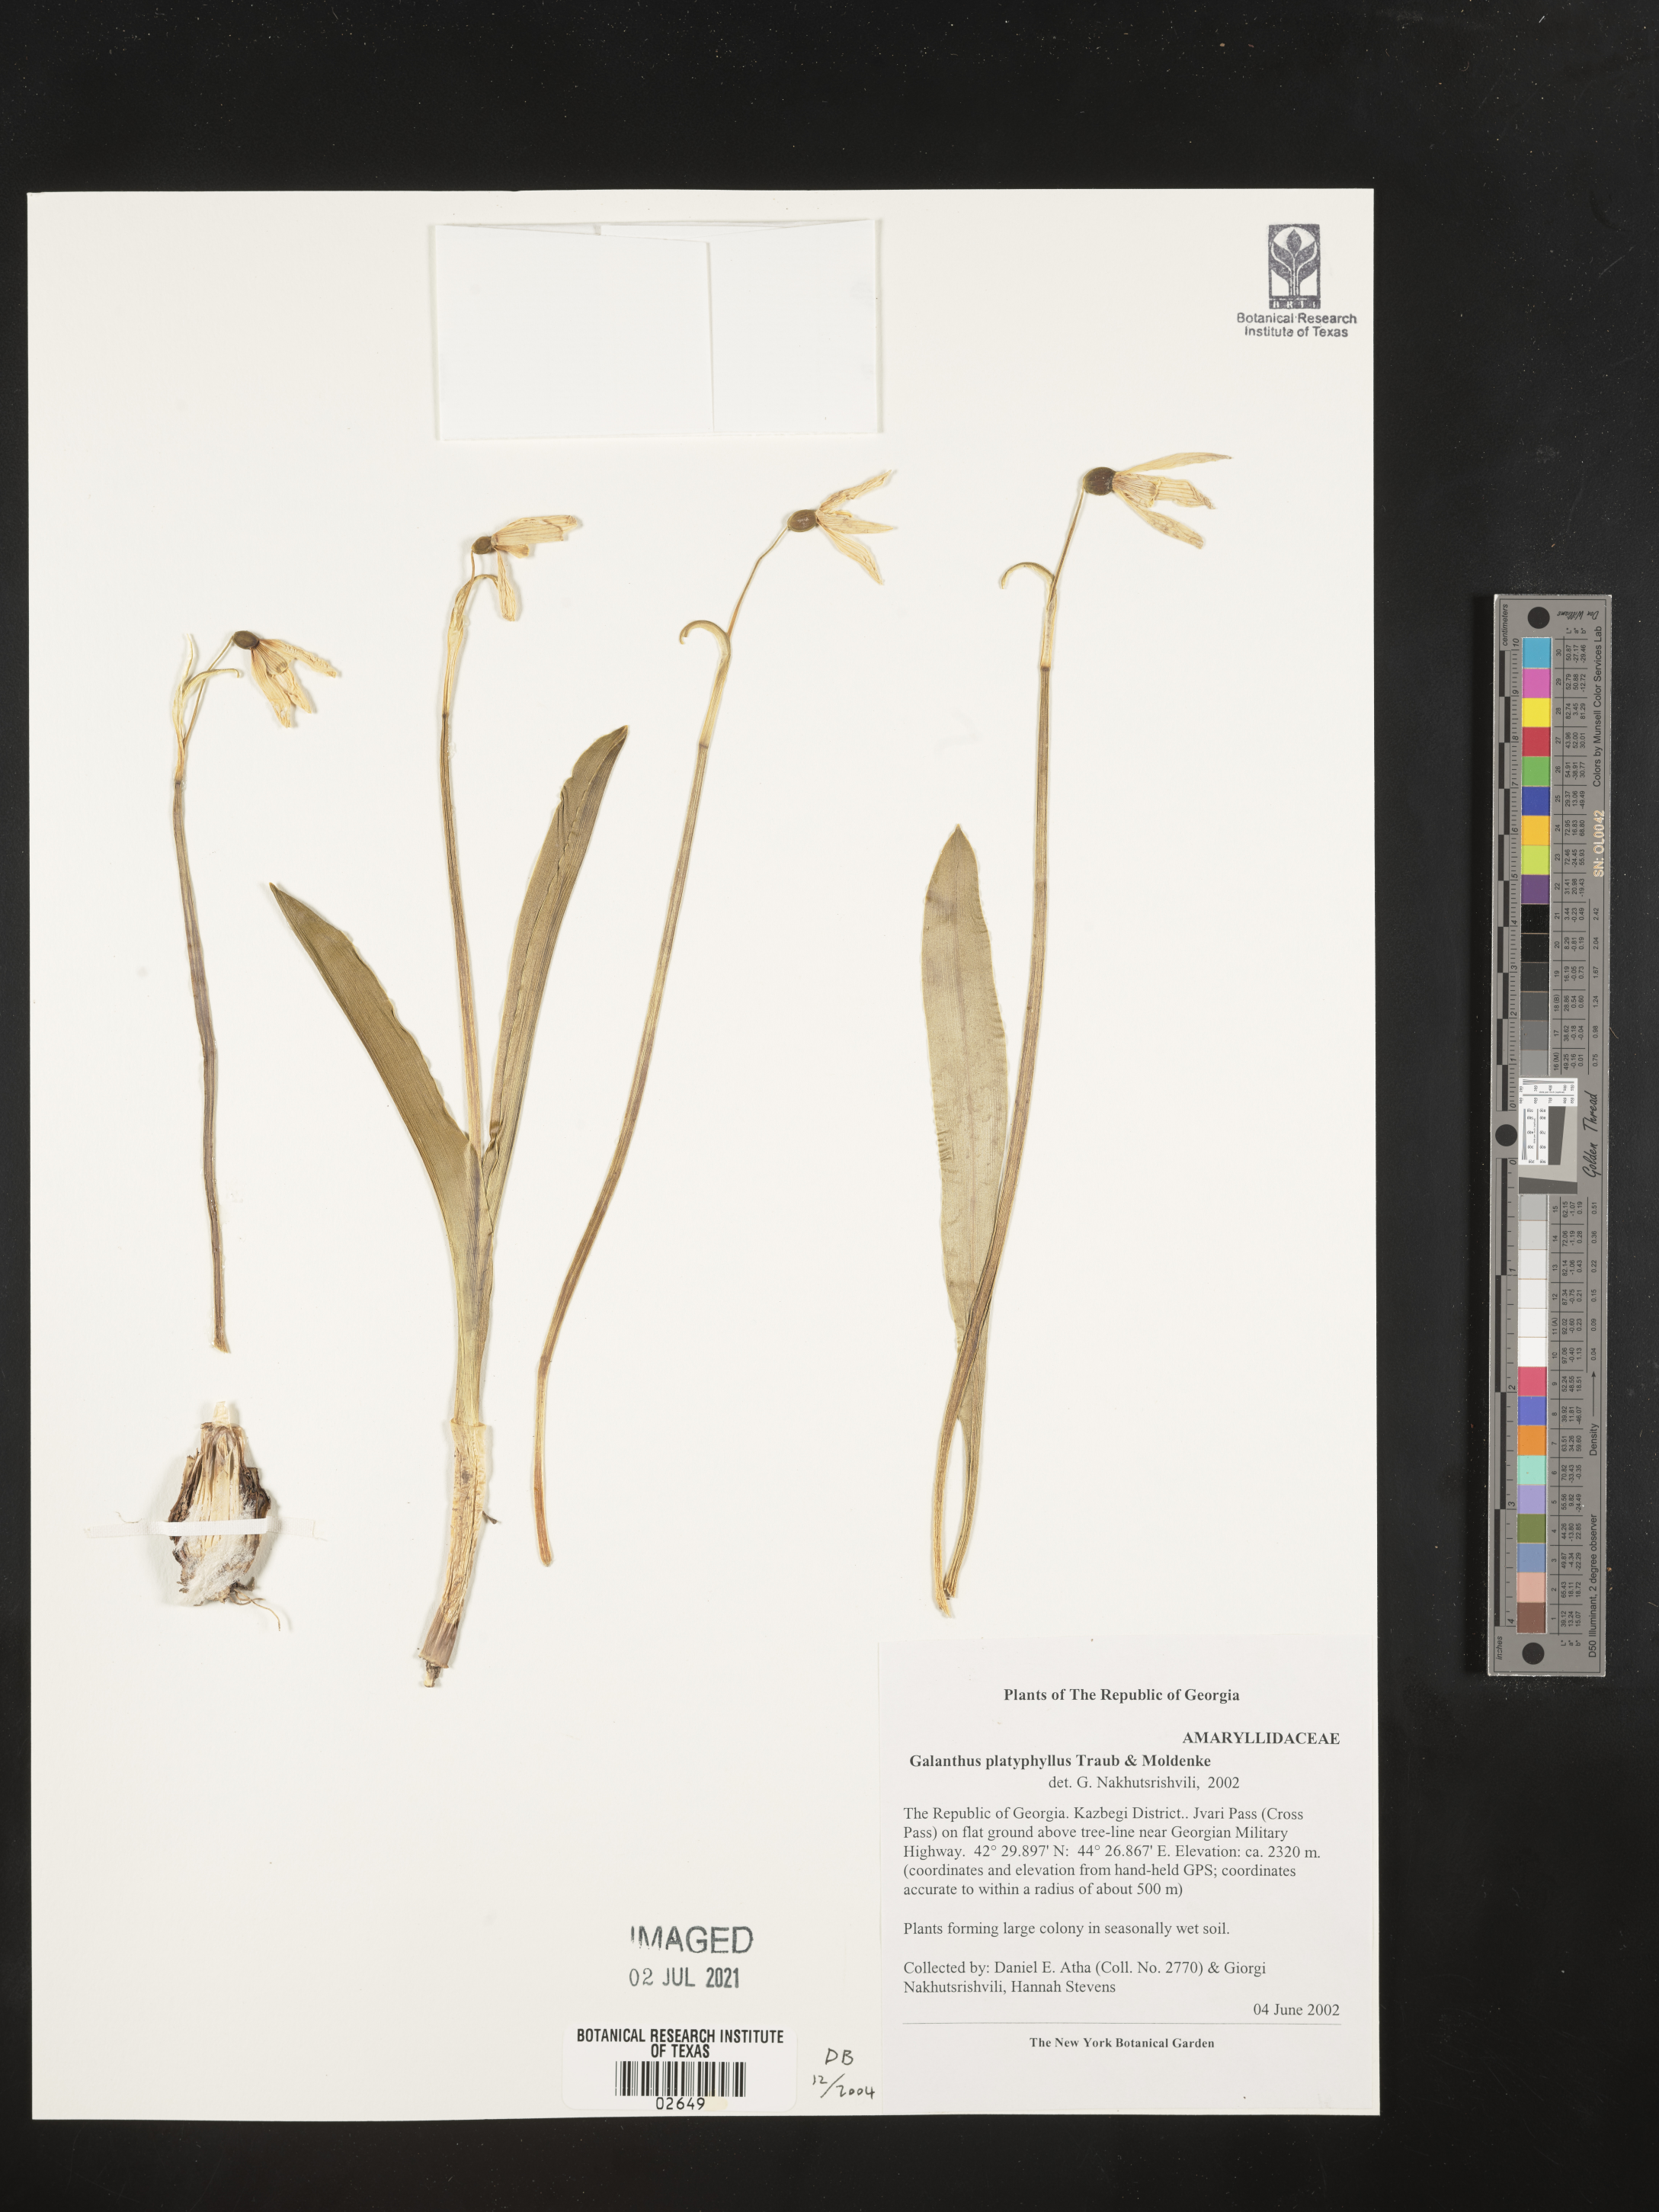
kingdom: Plantae
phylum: Tracheophyta
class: Liliopsida
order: Asparagales
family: Amaryllidaceae
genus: Galanthus
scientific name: Galanthus platyphyllus
